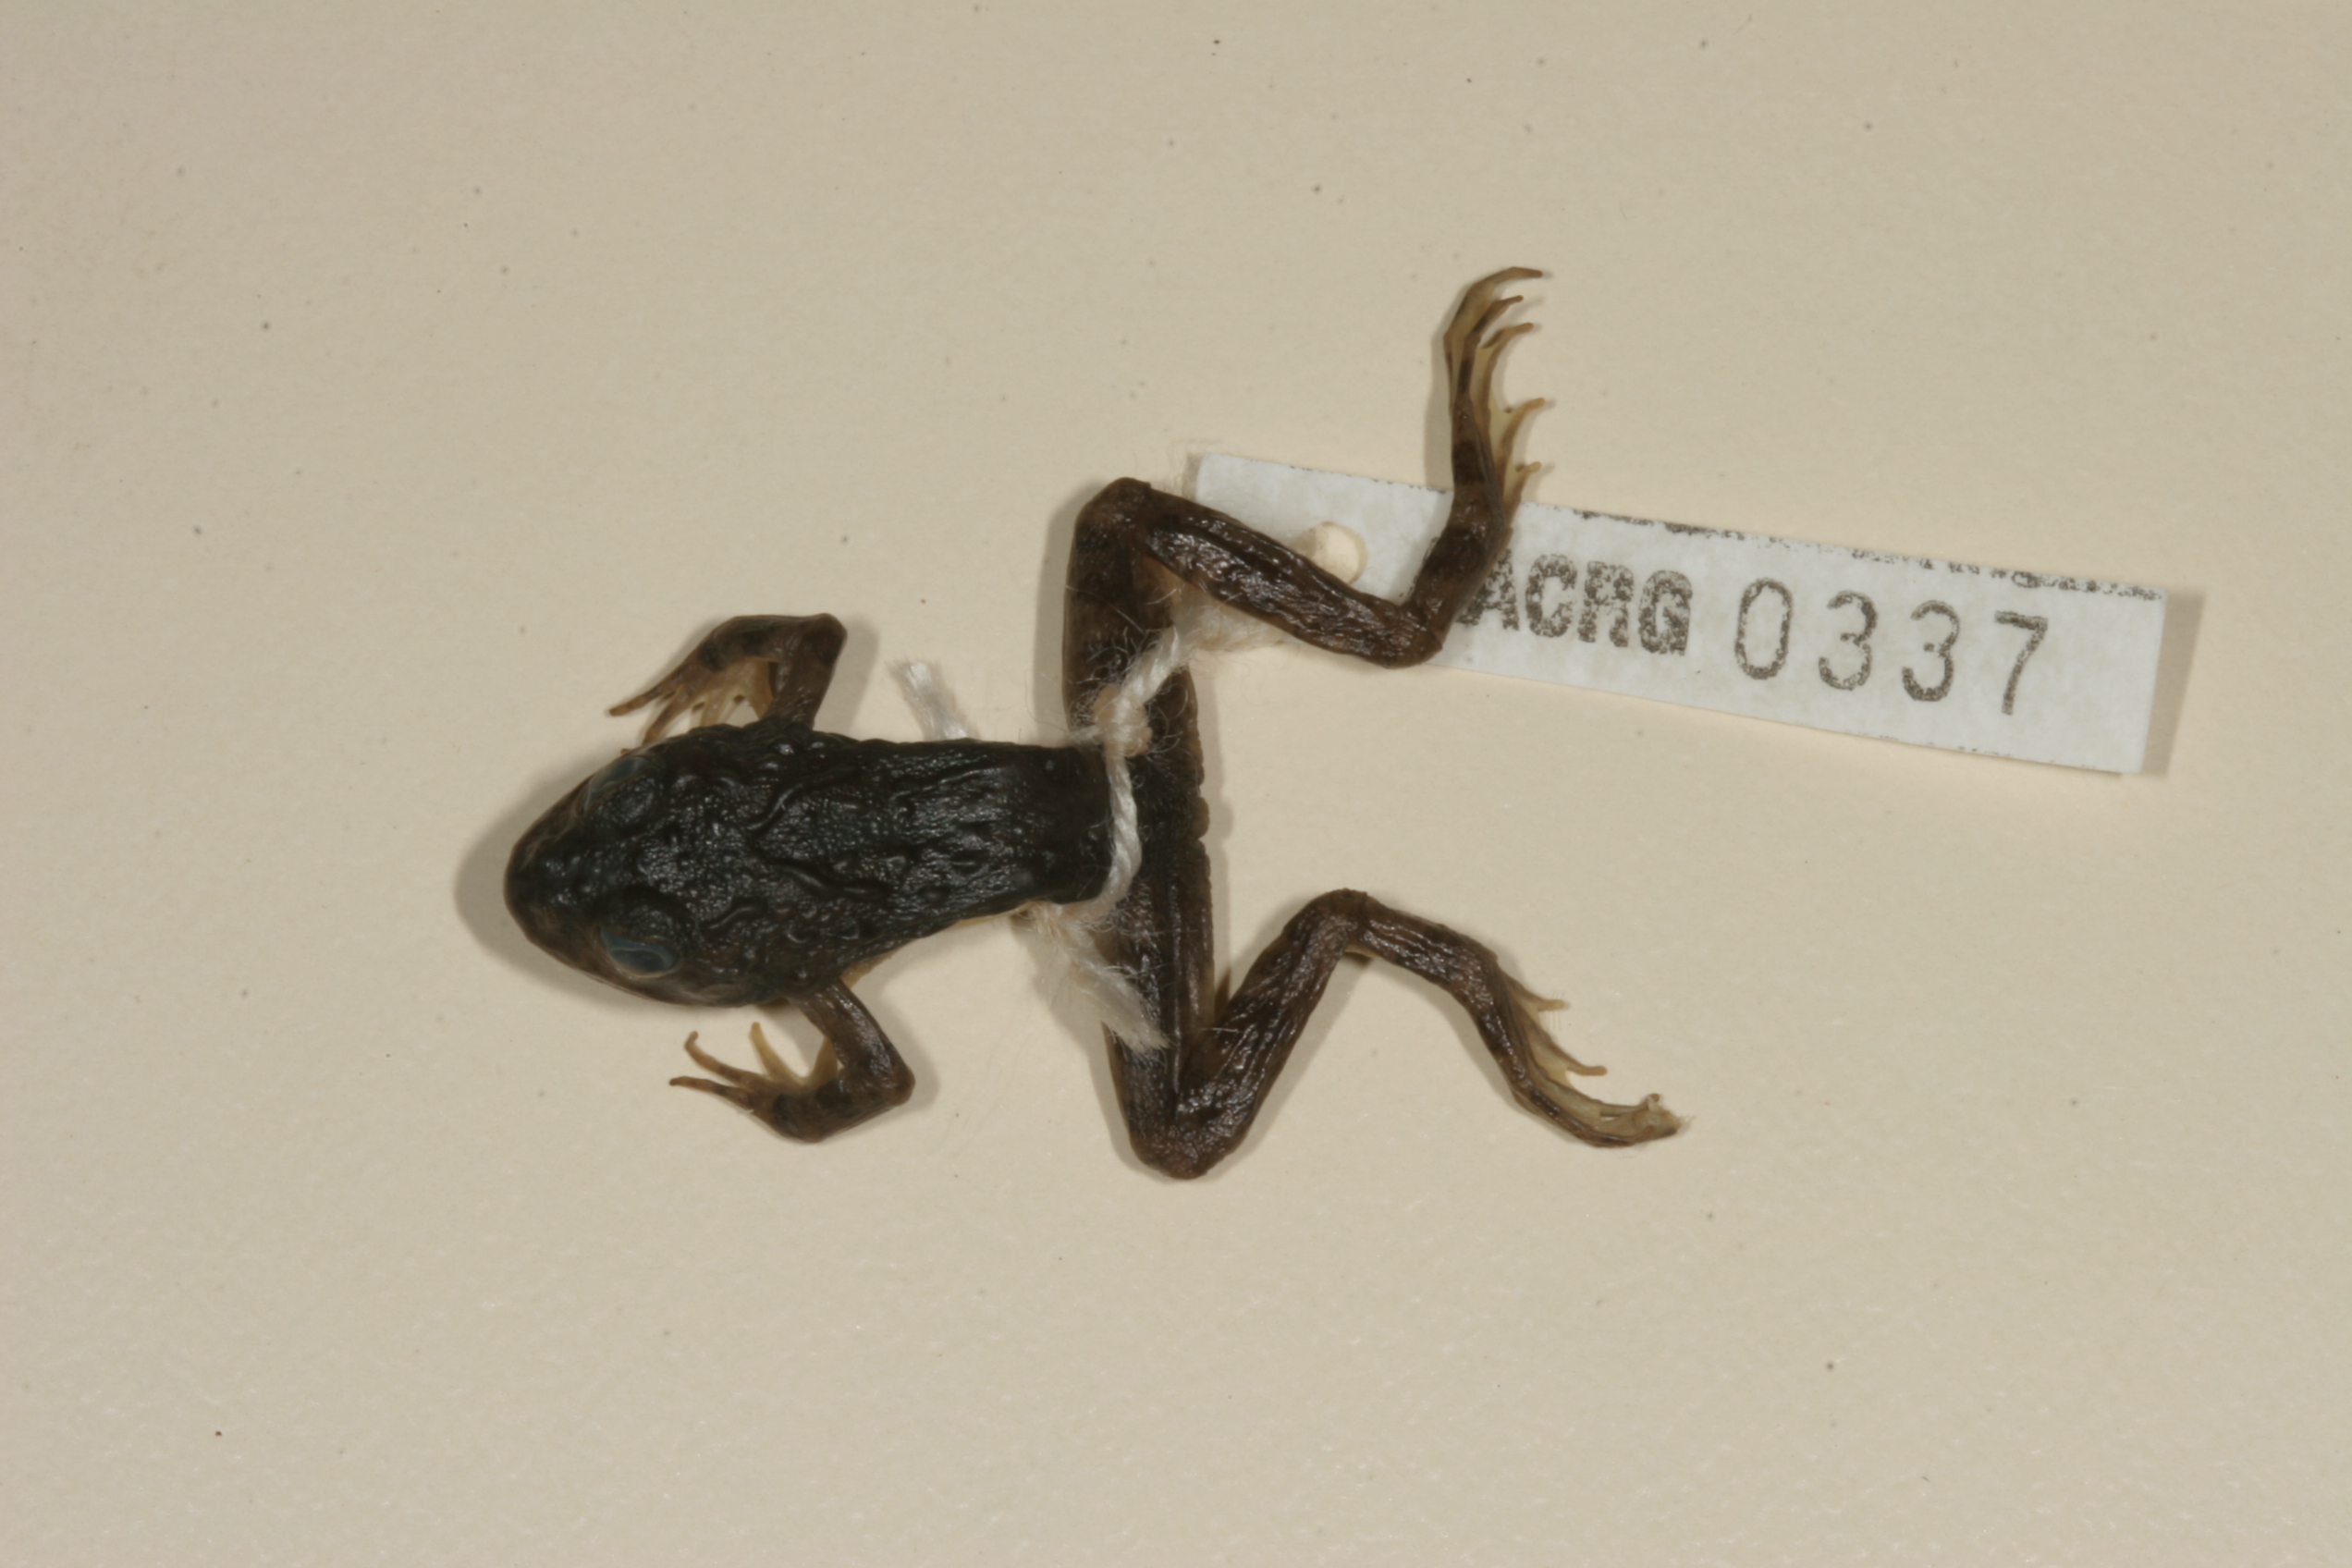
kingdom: Animalia
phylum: Chordata
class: Amphibia
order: Anura
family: Pyxicephalidae
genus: Amietia
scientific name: Amietia vertebralis
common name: Drakensberg stream frog
